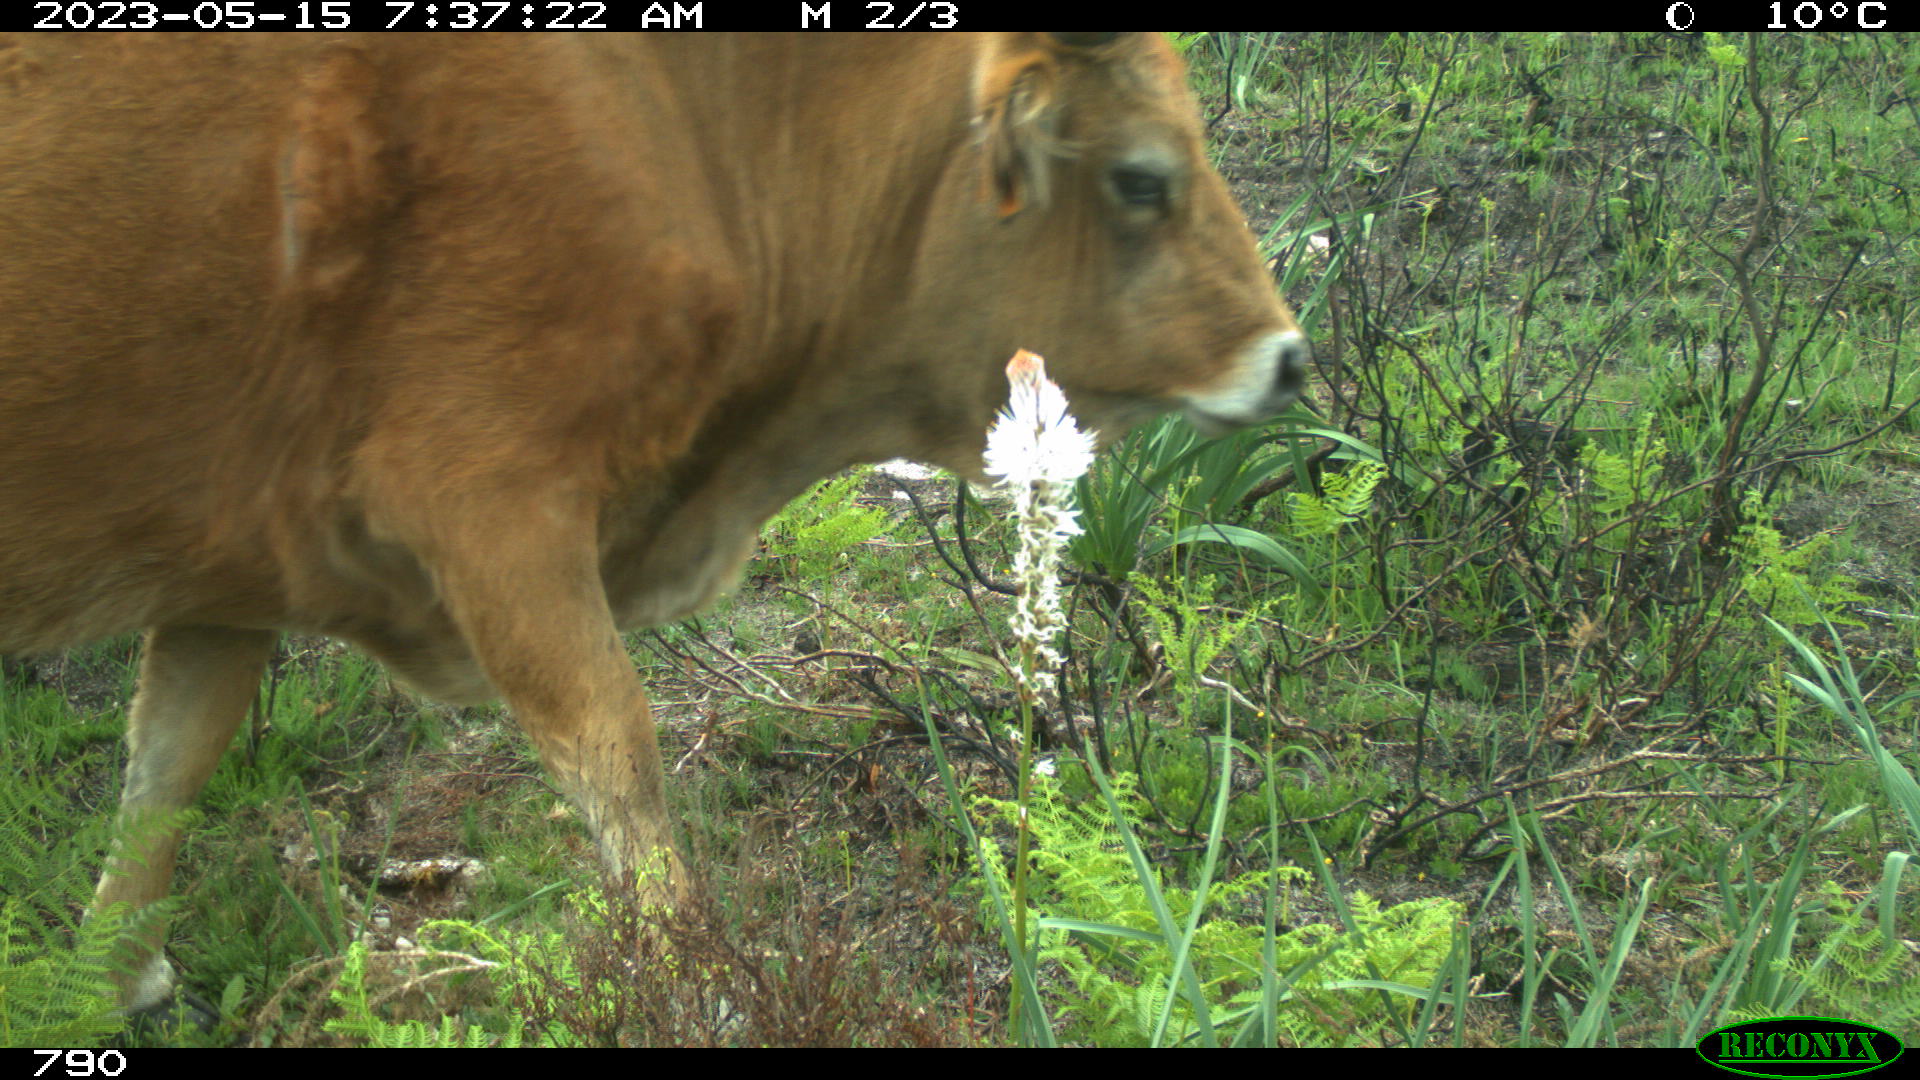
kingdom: Animalia
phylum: Chordata
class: Mammalia
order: Artiodactyla
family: Bovidae
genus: Bos
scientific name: Bos taurus
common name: Domesticated cattle
